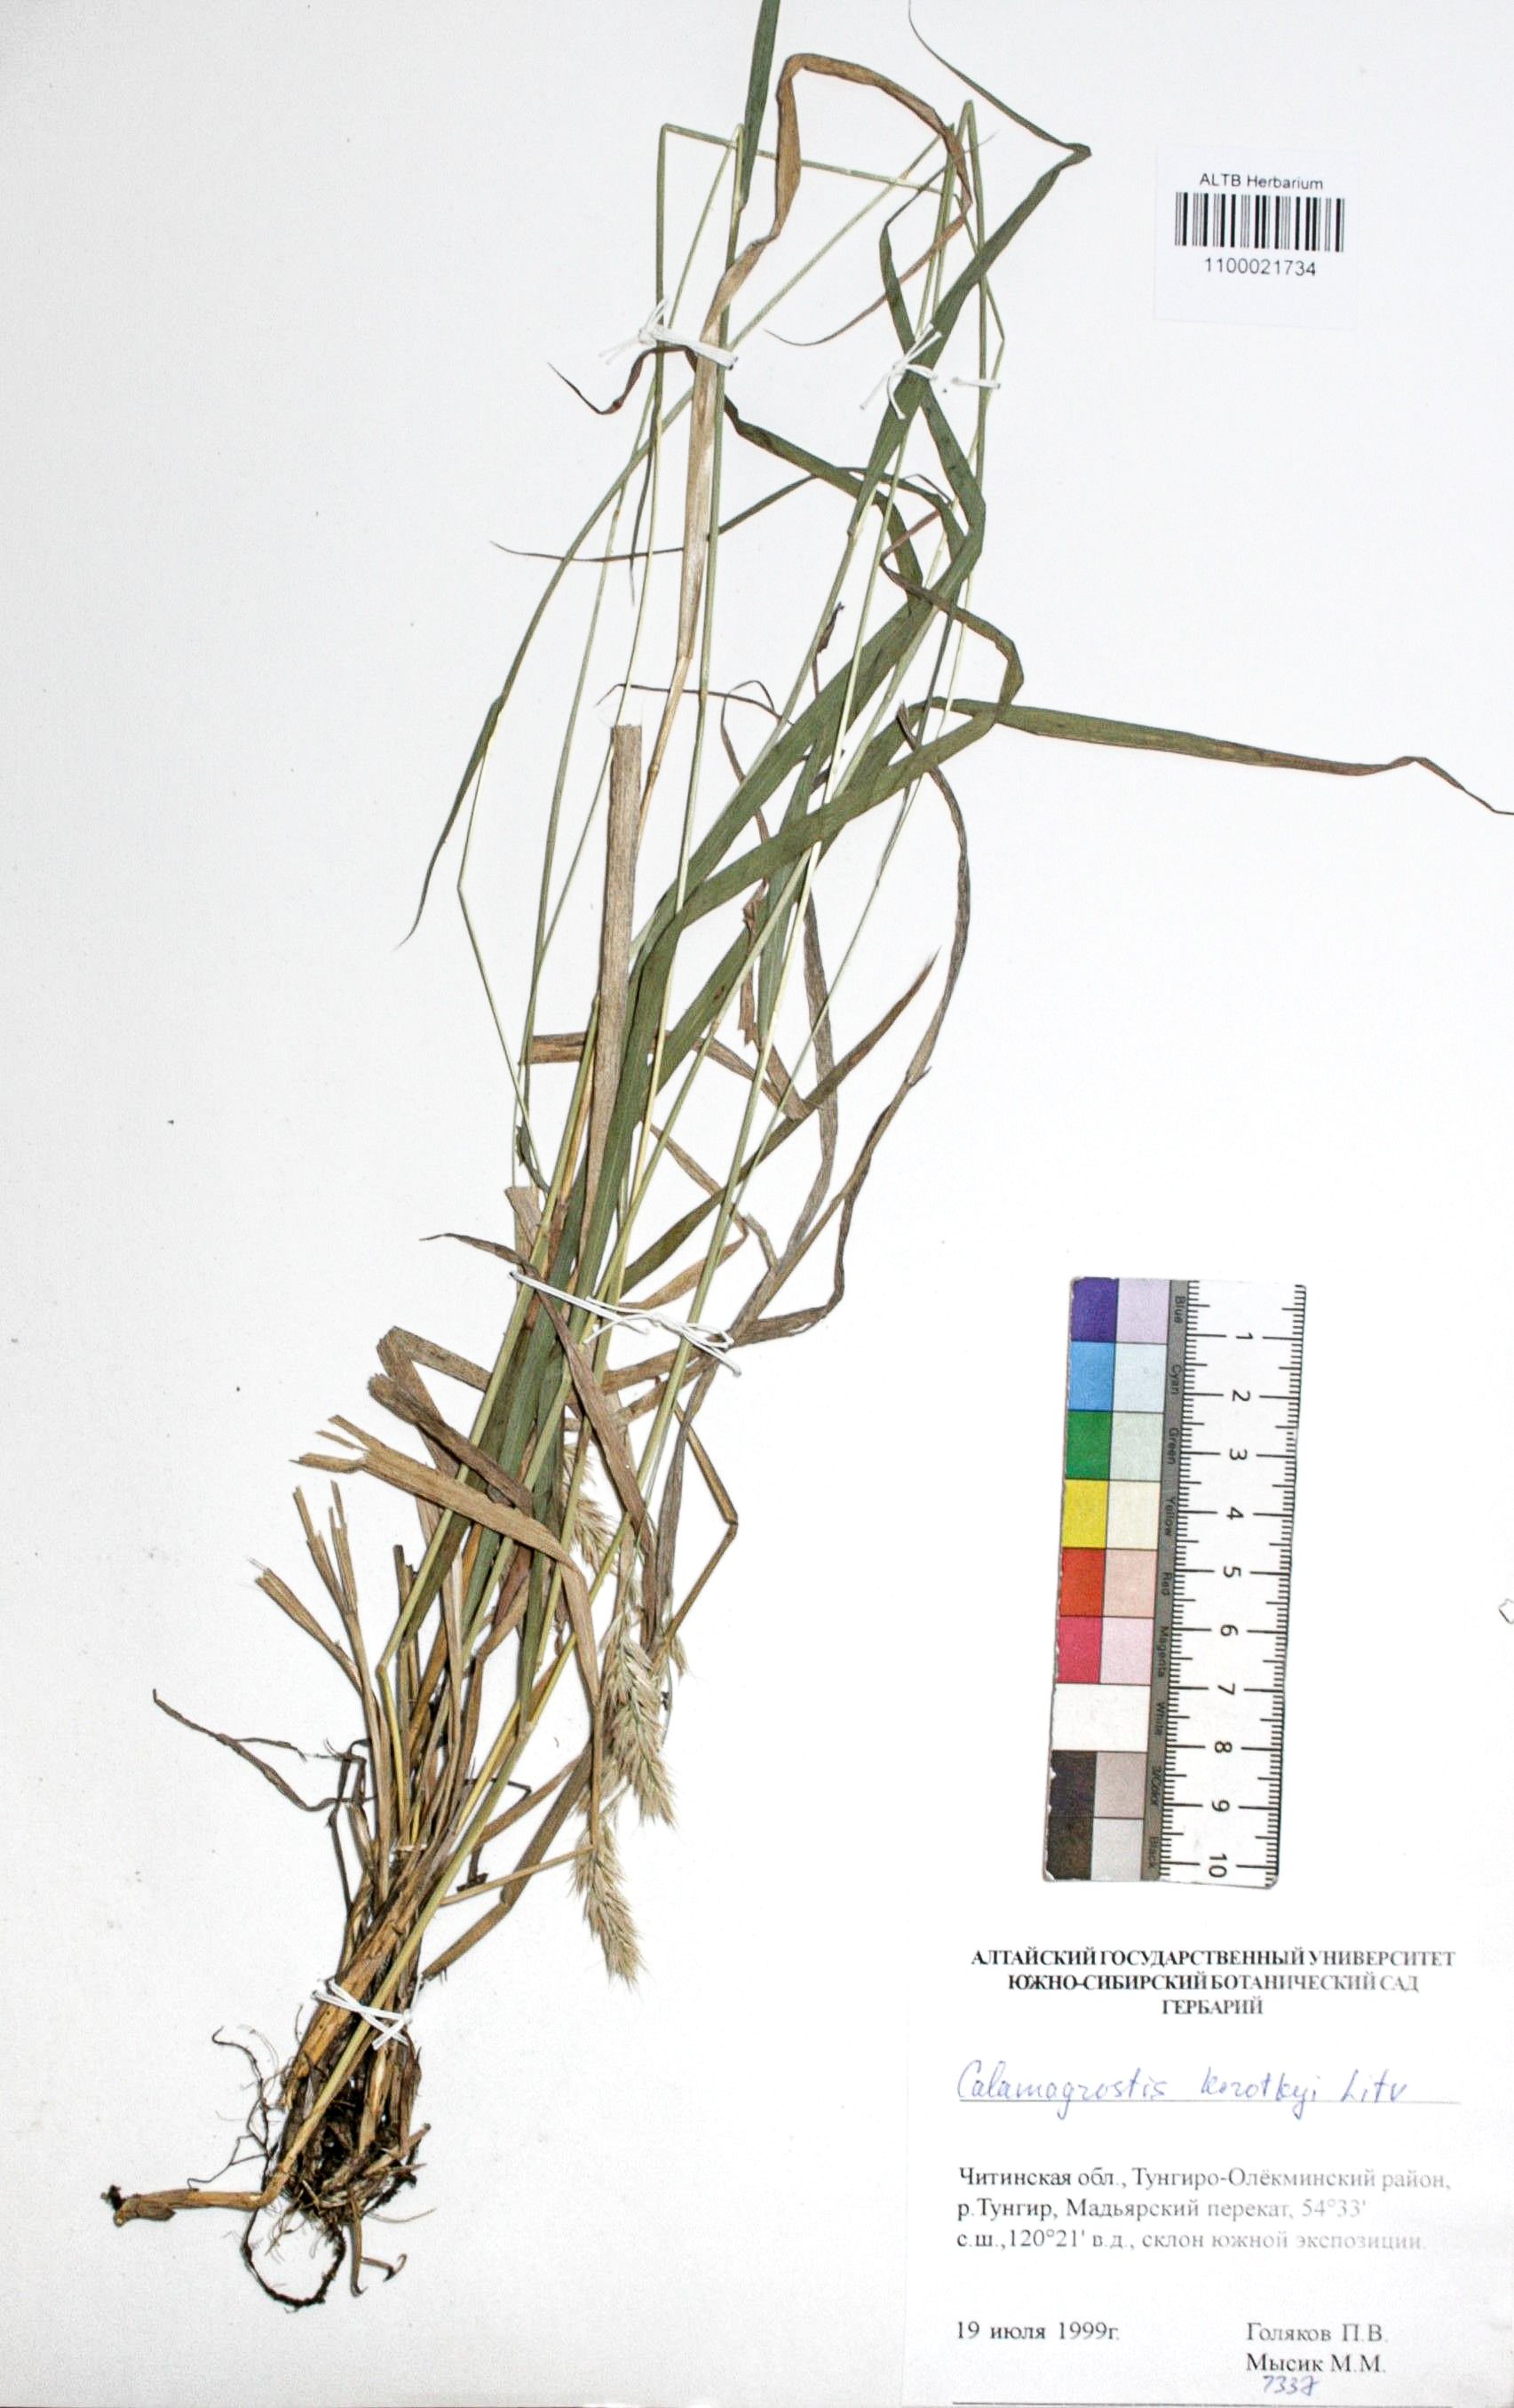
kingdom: Plantae
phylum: Tracheophyta
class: Liliopsida
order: Poales
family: Poaceae
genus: Calamagrostis
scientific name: Calamagrostis korotkyi
